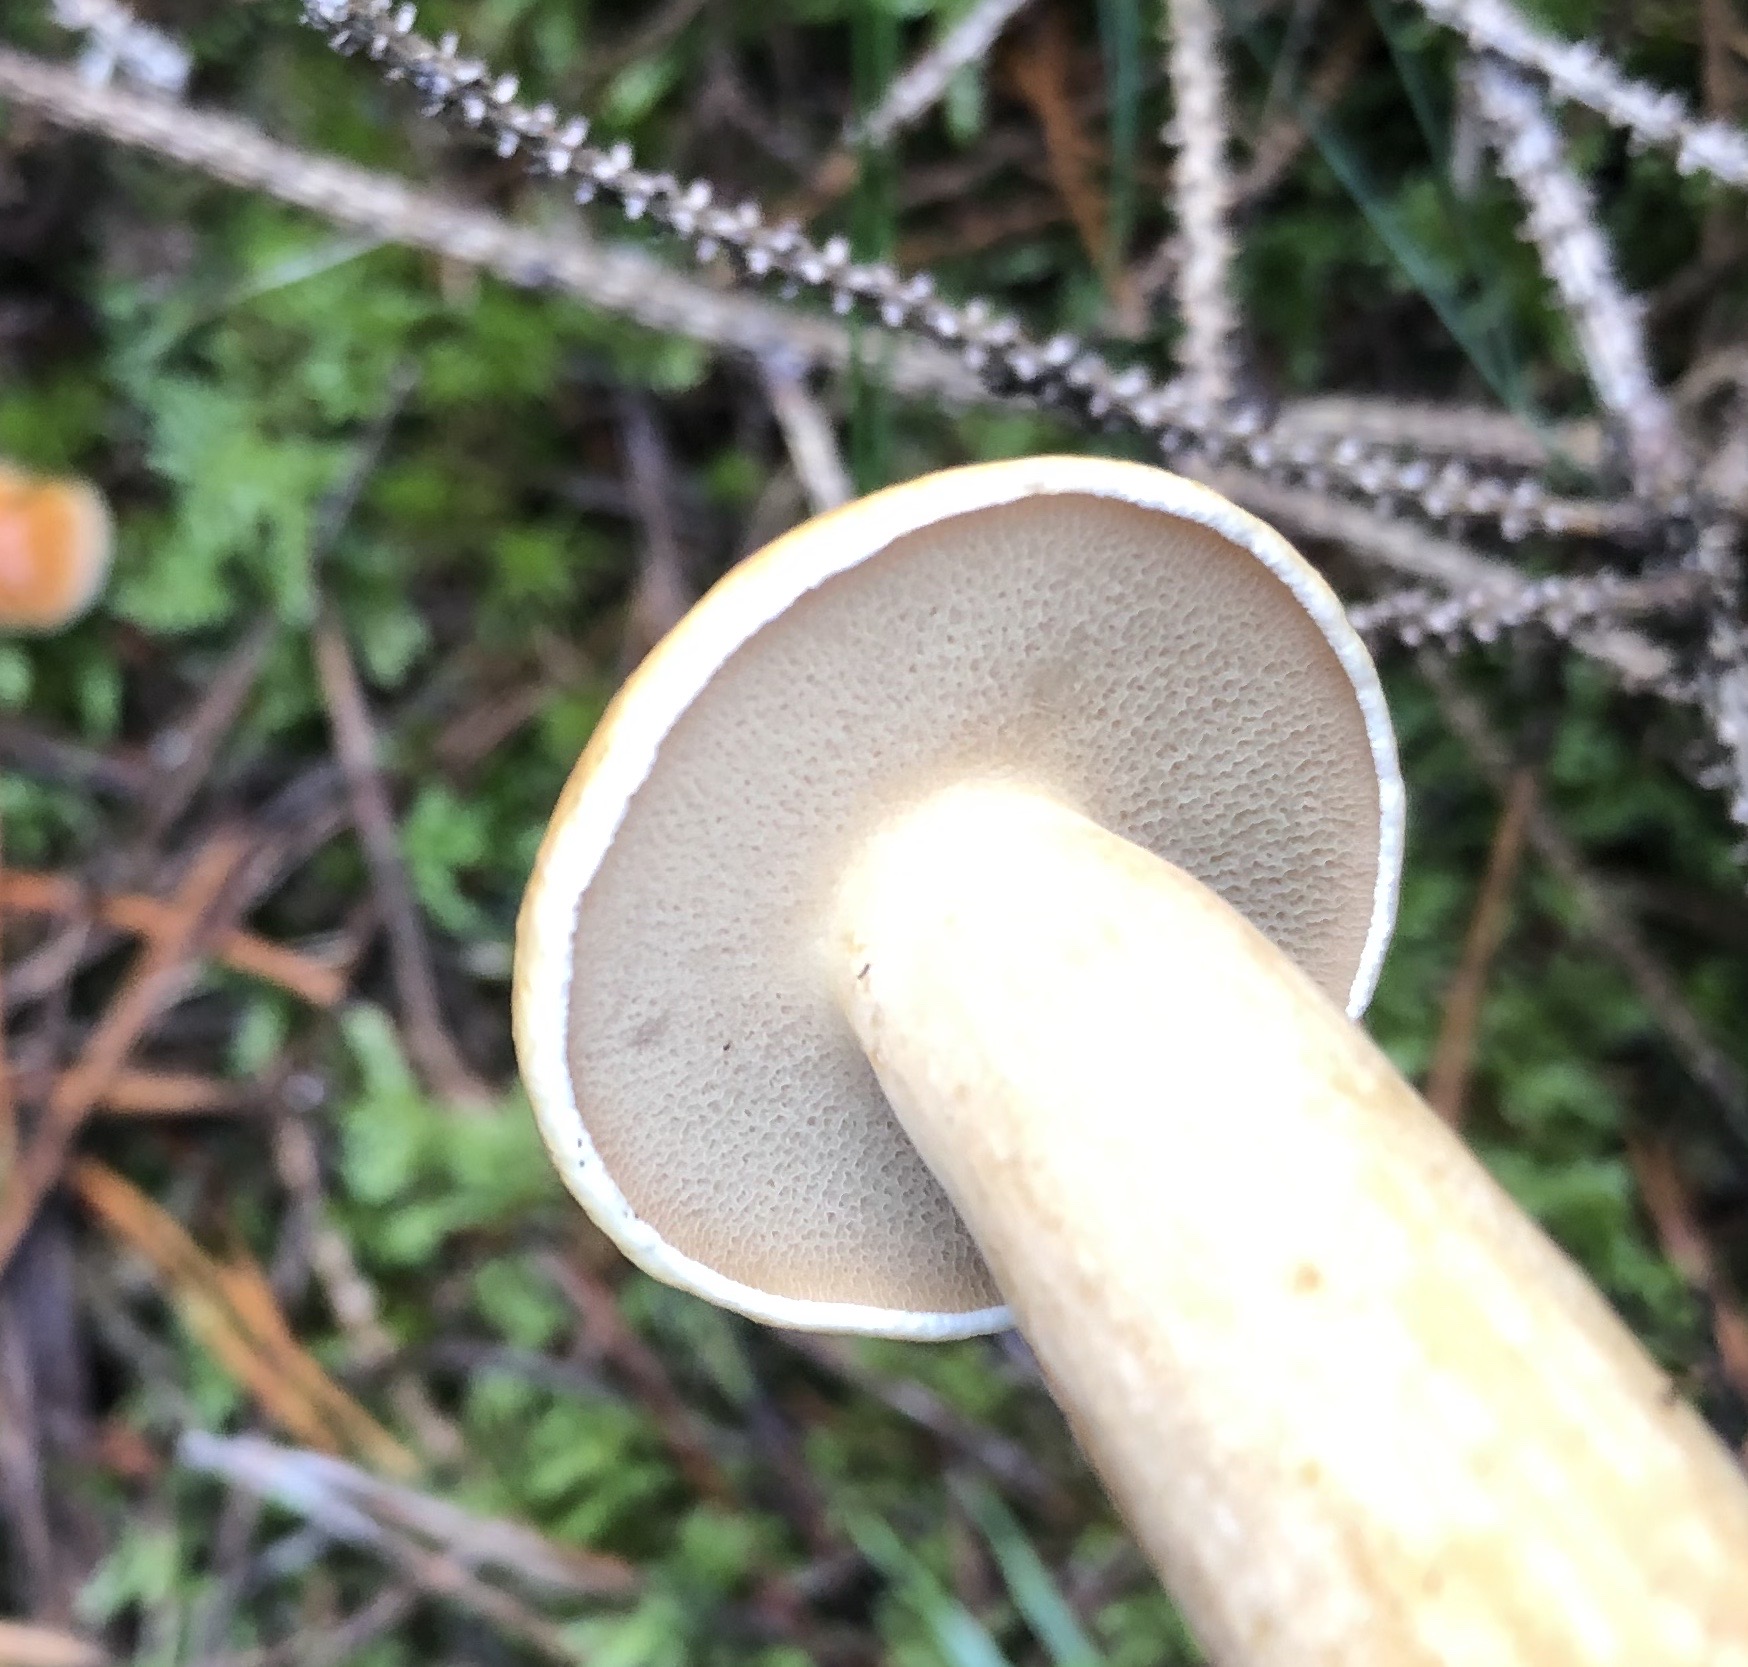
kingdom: Fungi
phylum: Basidiomycota
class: Agaricomycetes
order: Boletales
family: Suillaceae
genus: Suillus
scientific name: Suillus bovinus
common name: grovporet slimrørhat
